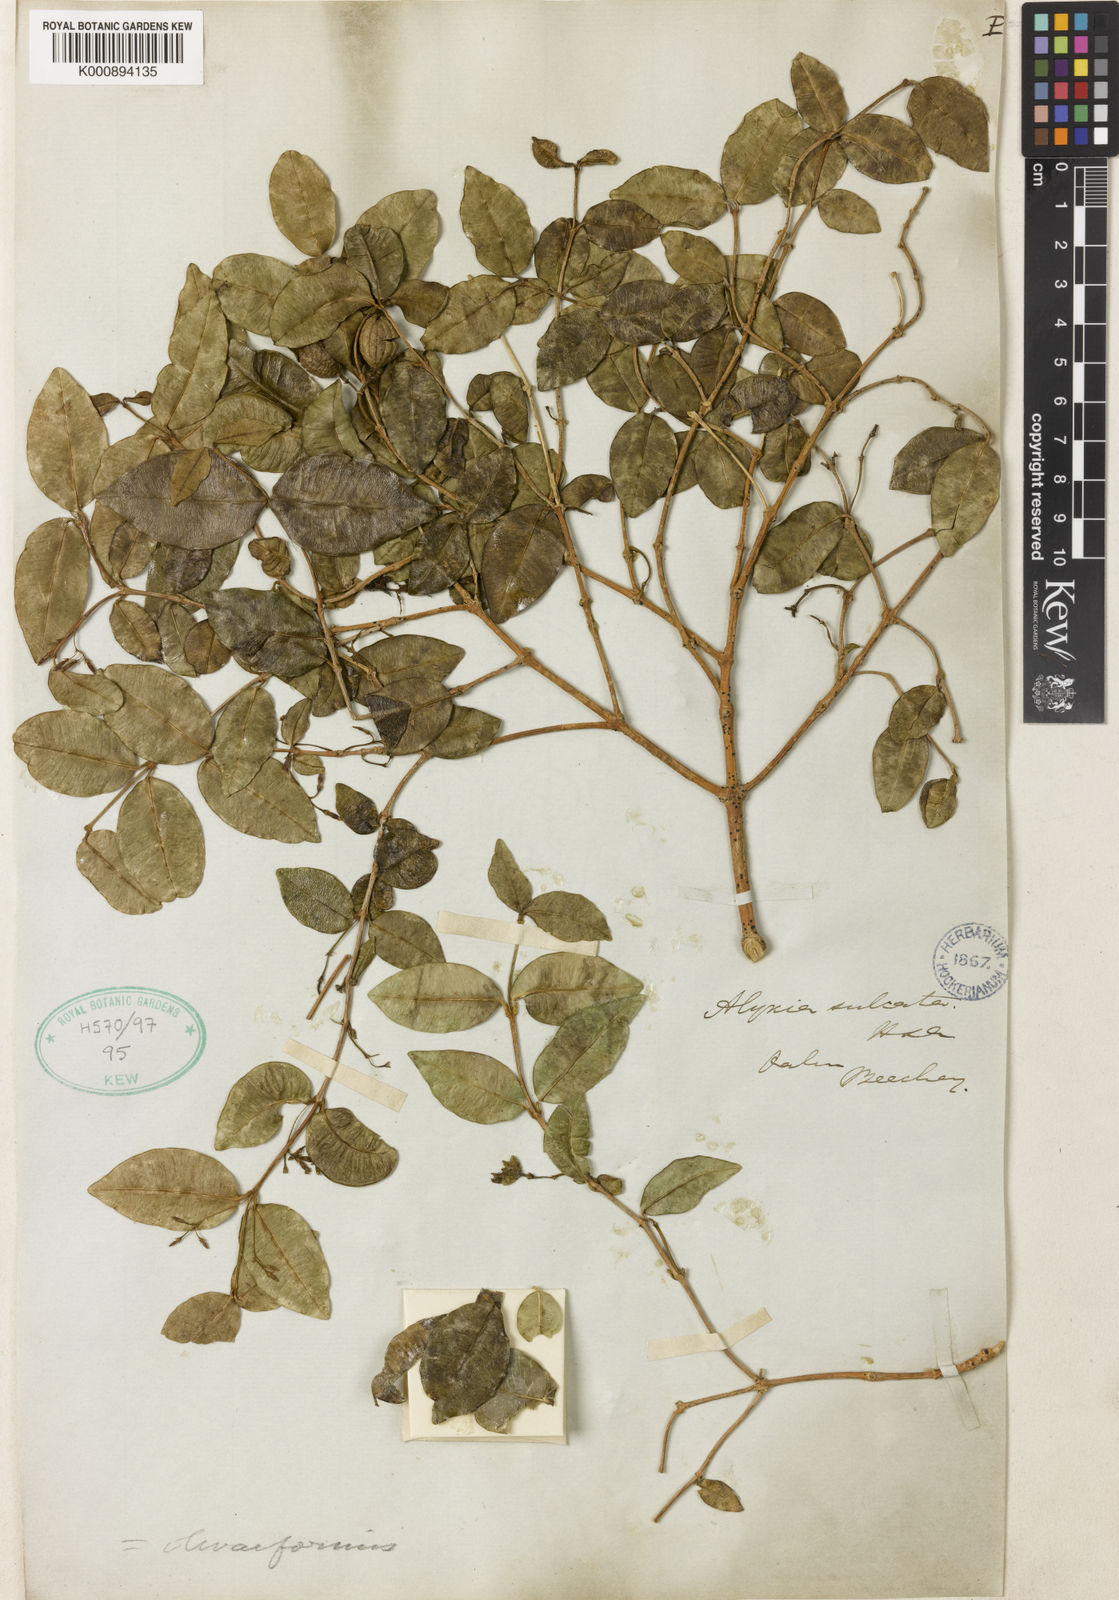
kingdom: Plantae
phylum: Tracheophyta
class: Magnoliopsida
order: Gentianales
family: Apocynaceae
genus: Alyxia
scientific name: Alyxia stellata
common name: Maile
